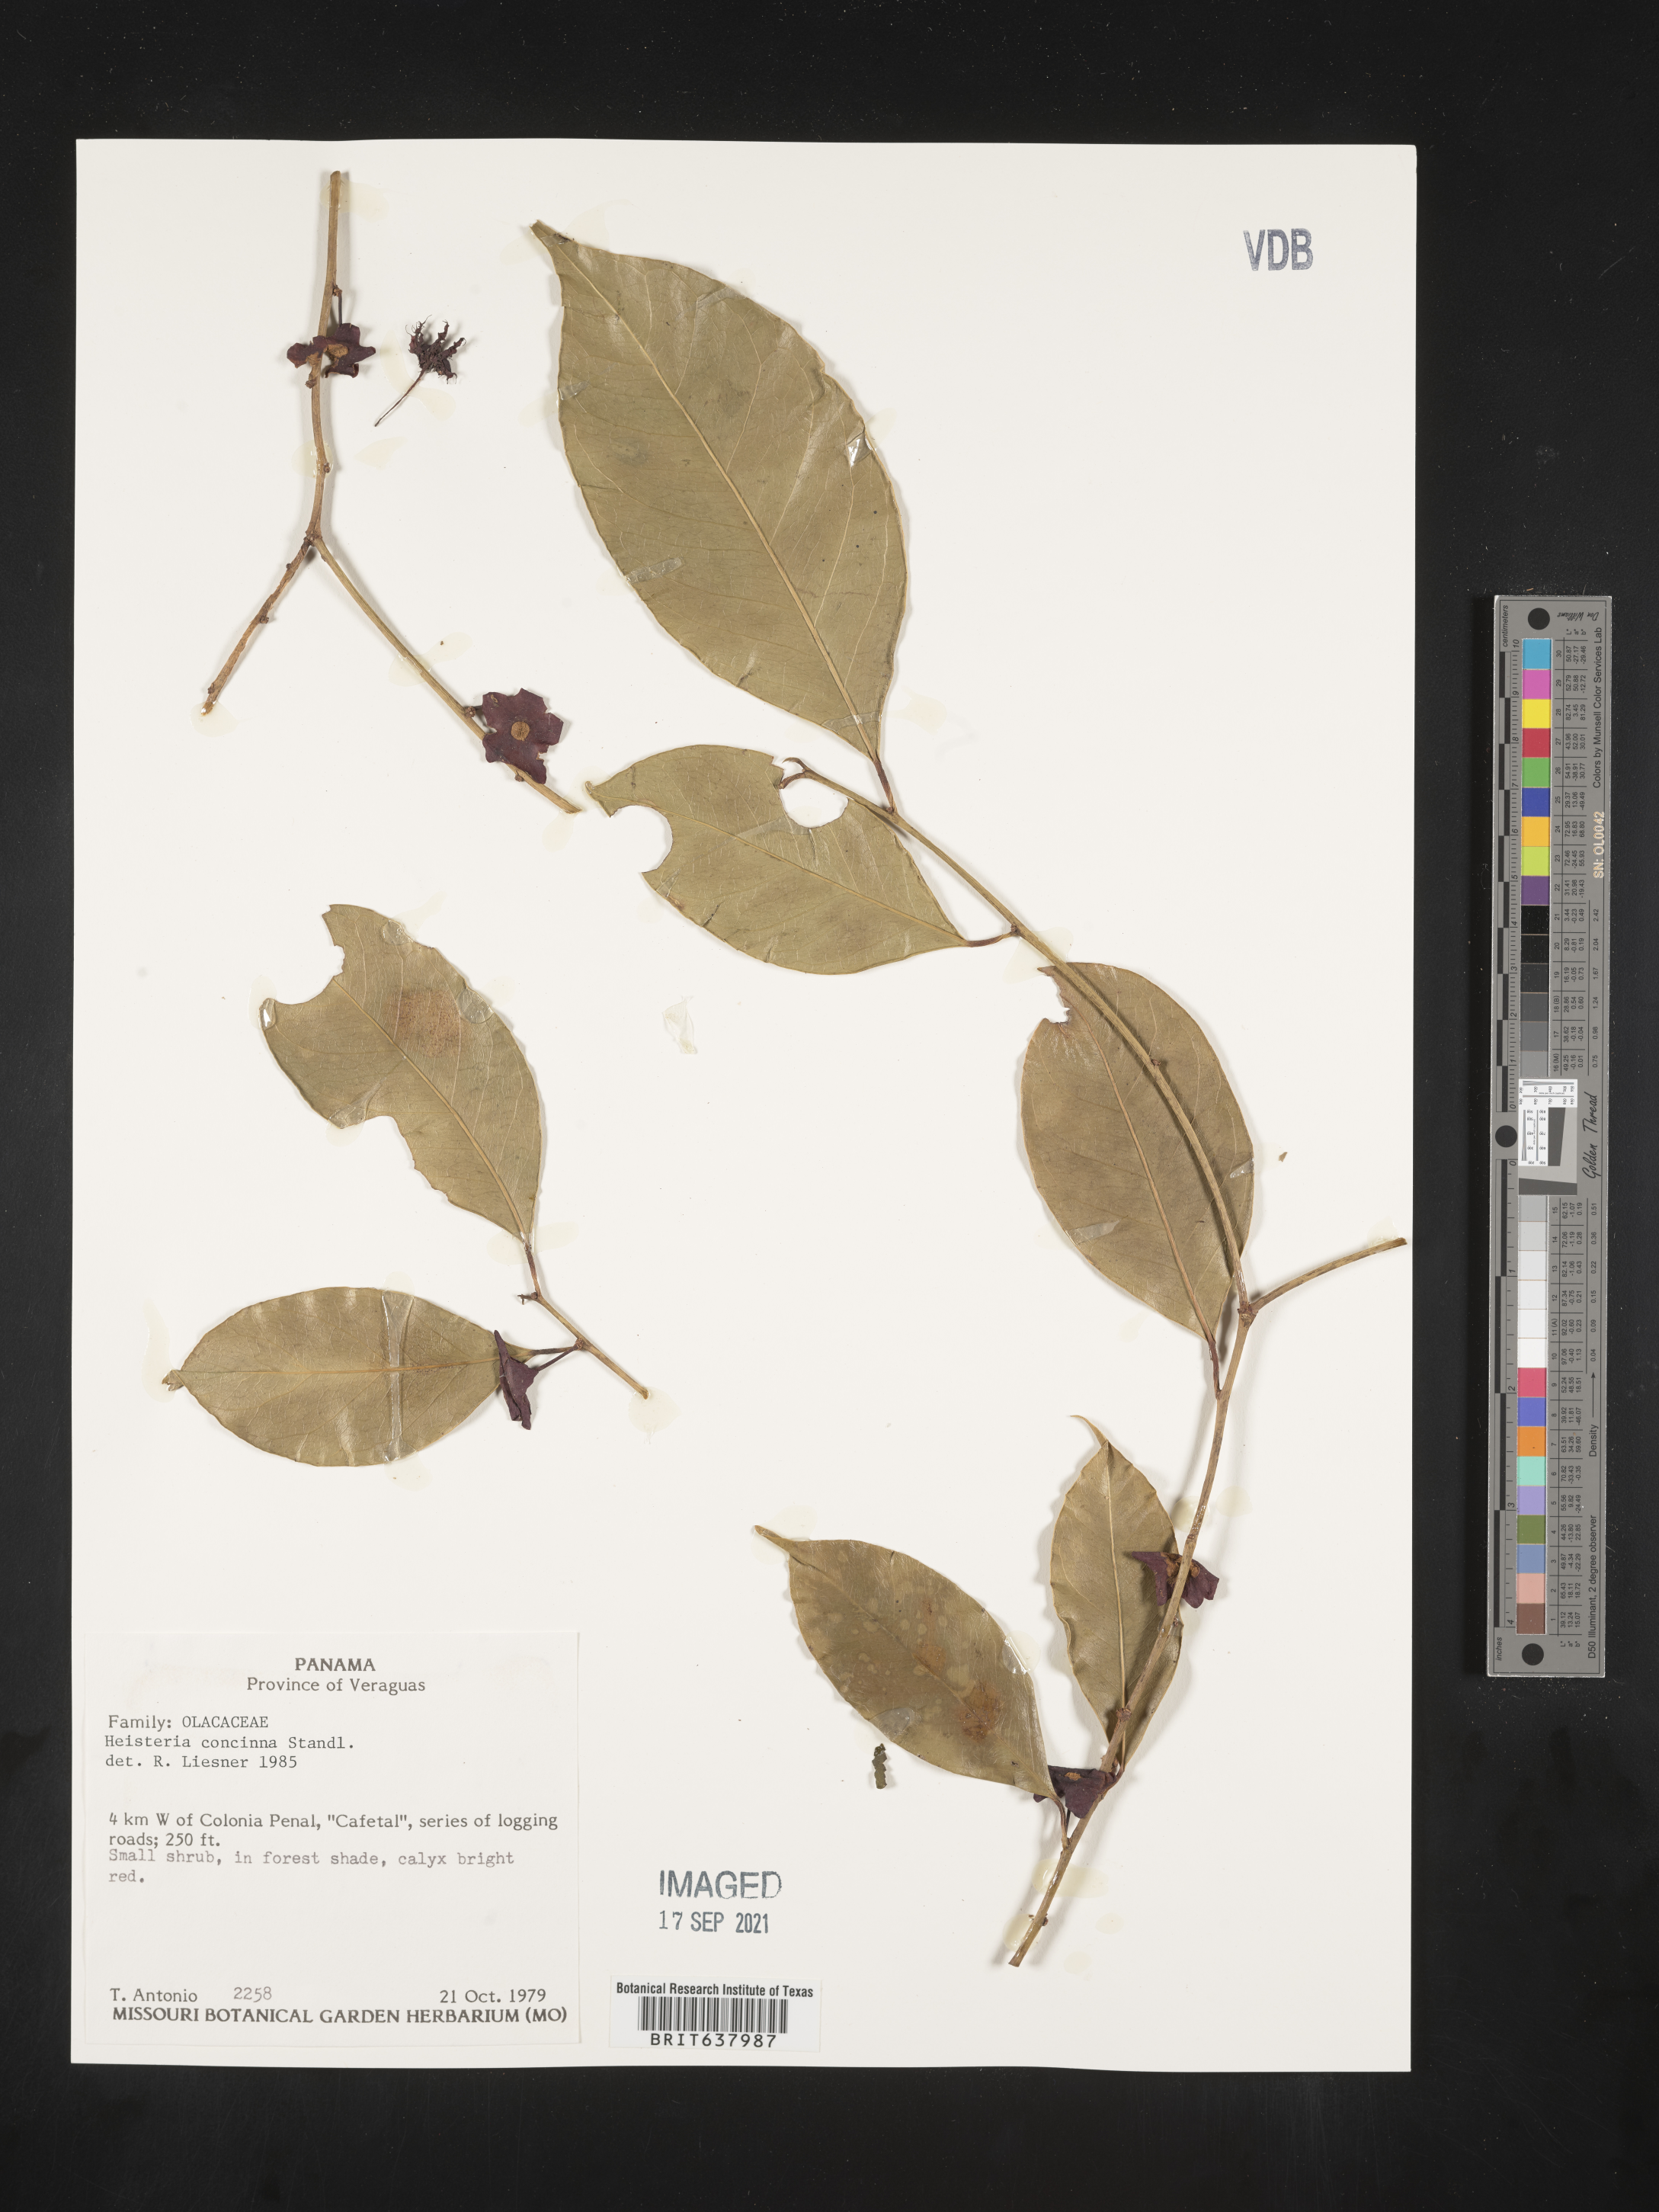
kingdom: Plantae
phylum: Tracheophyta
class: Magnoliopsida
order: Santalales
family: Erythropalaceae
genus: Heisteria
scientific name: Heisteria
